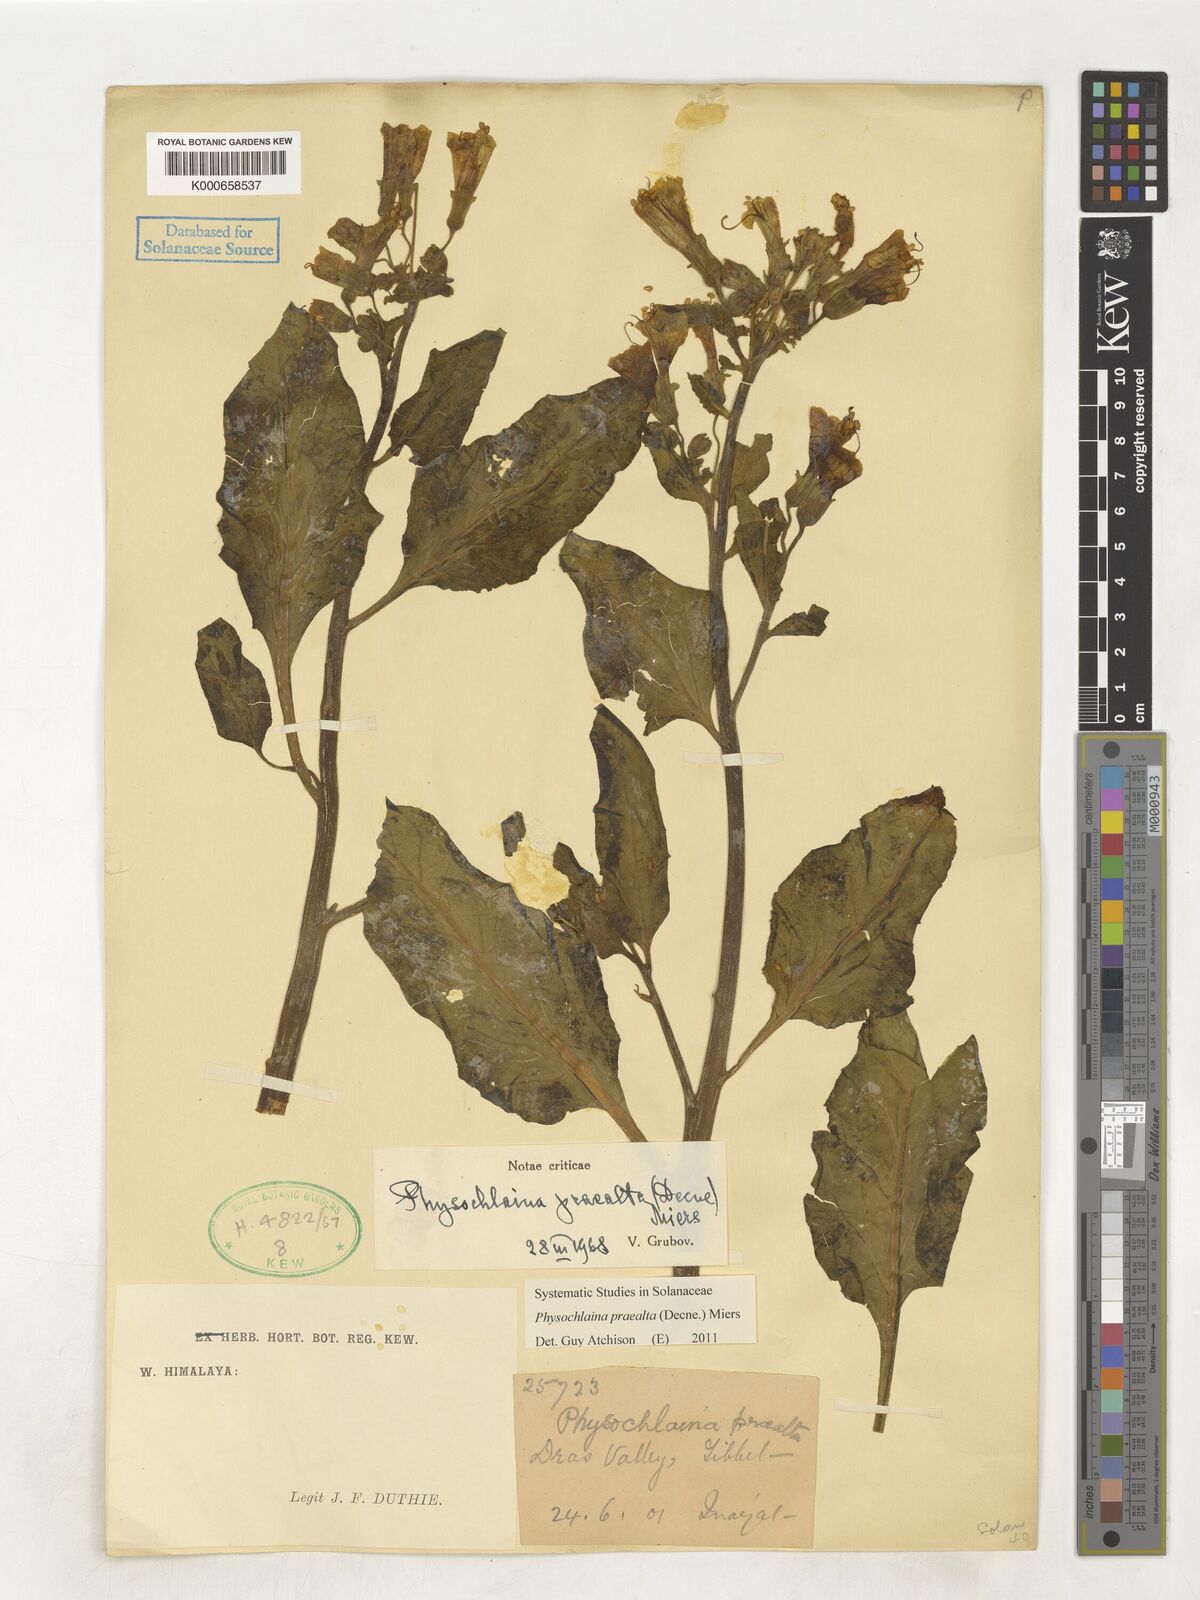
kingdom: Plantae
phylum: Tracheophyta
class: Magnoliopsida
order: Solanales
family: Solanaceae
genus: Physochlaina
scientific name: Physochlaina praealta
